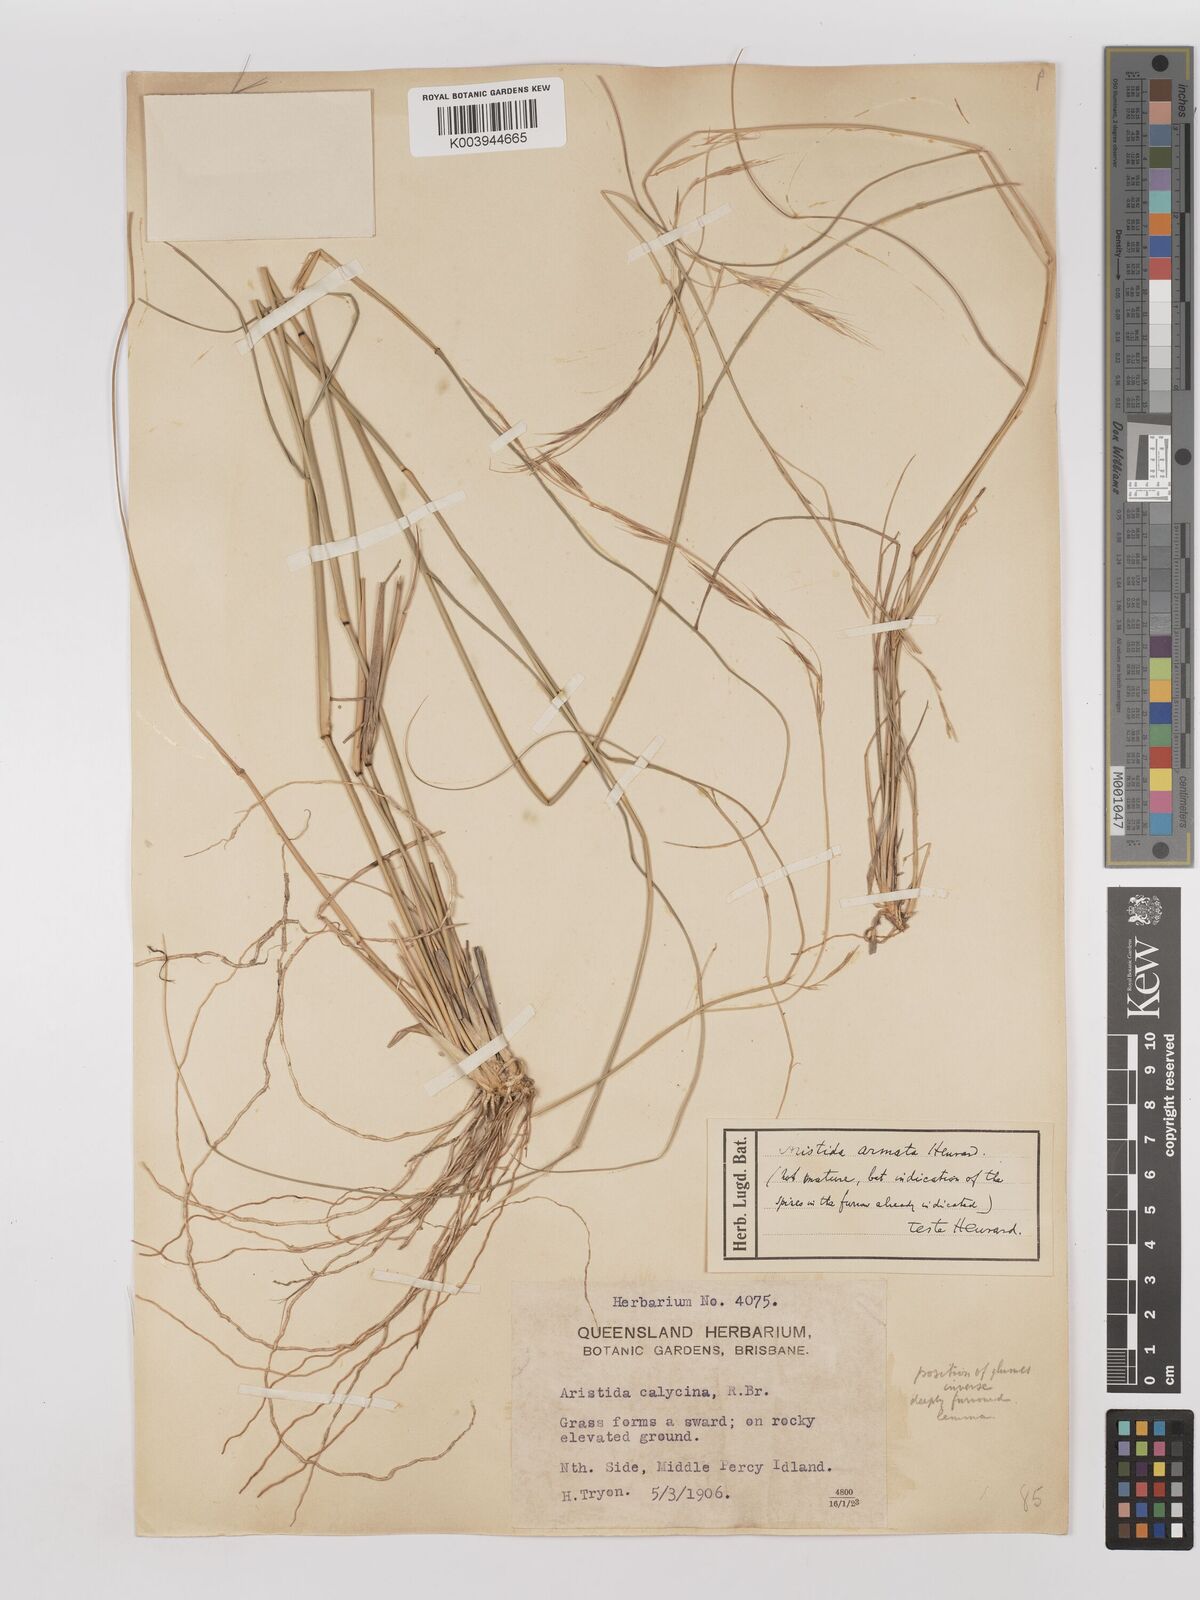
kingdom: Plantae
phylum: Tracheophyta
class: Liliopsida
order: Poales
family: Poaceae
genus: Aristida
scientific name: Aristida calycina
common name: Dark wire grass
